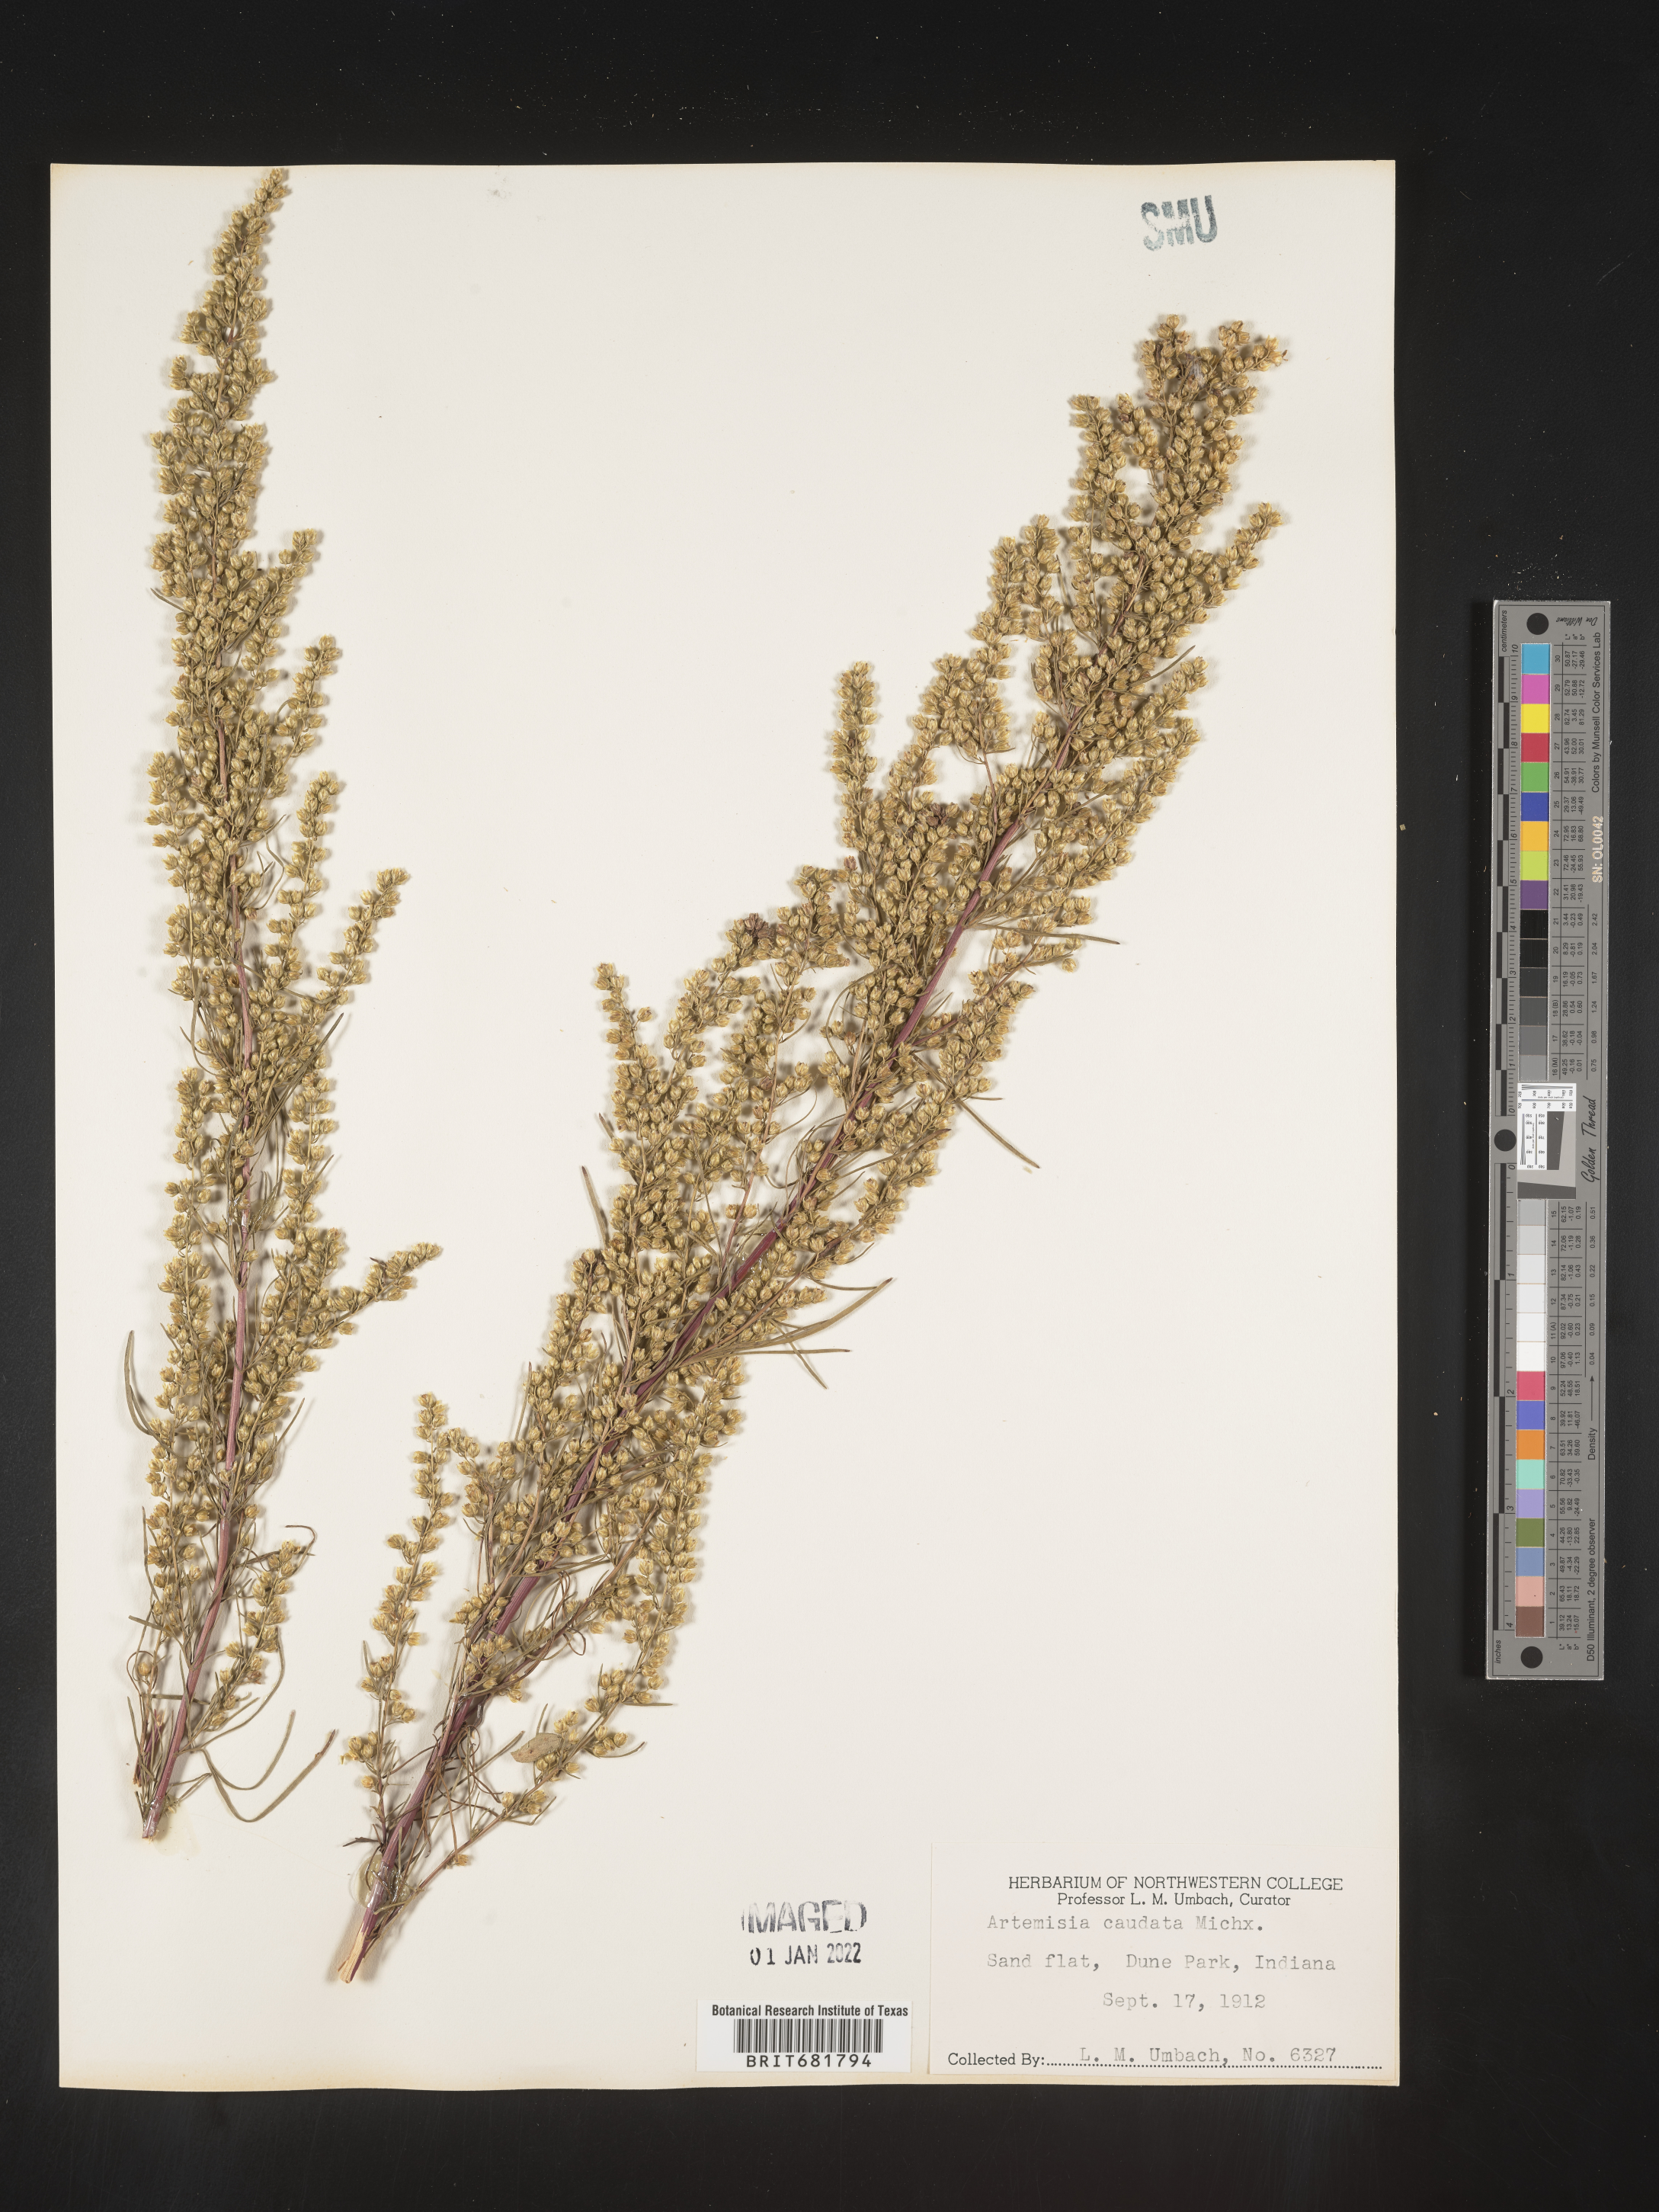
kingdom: Plantae
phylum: Tracheophyta
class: Magnoliopsida
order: Asterales
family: Asteraceae
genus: Artemisia
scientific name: Artemisia campestris
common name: Field wormwood
